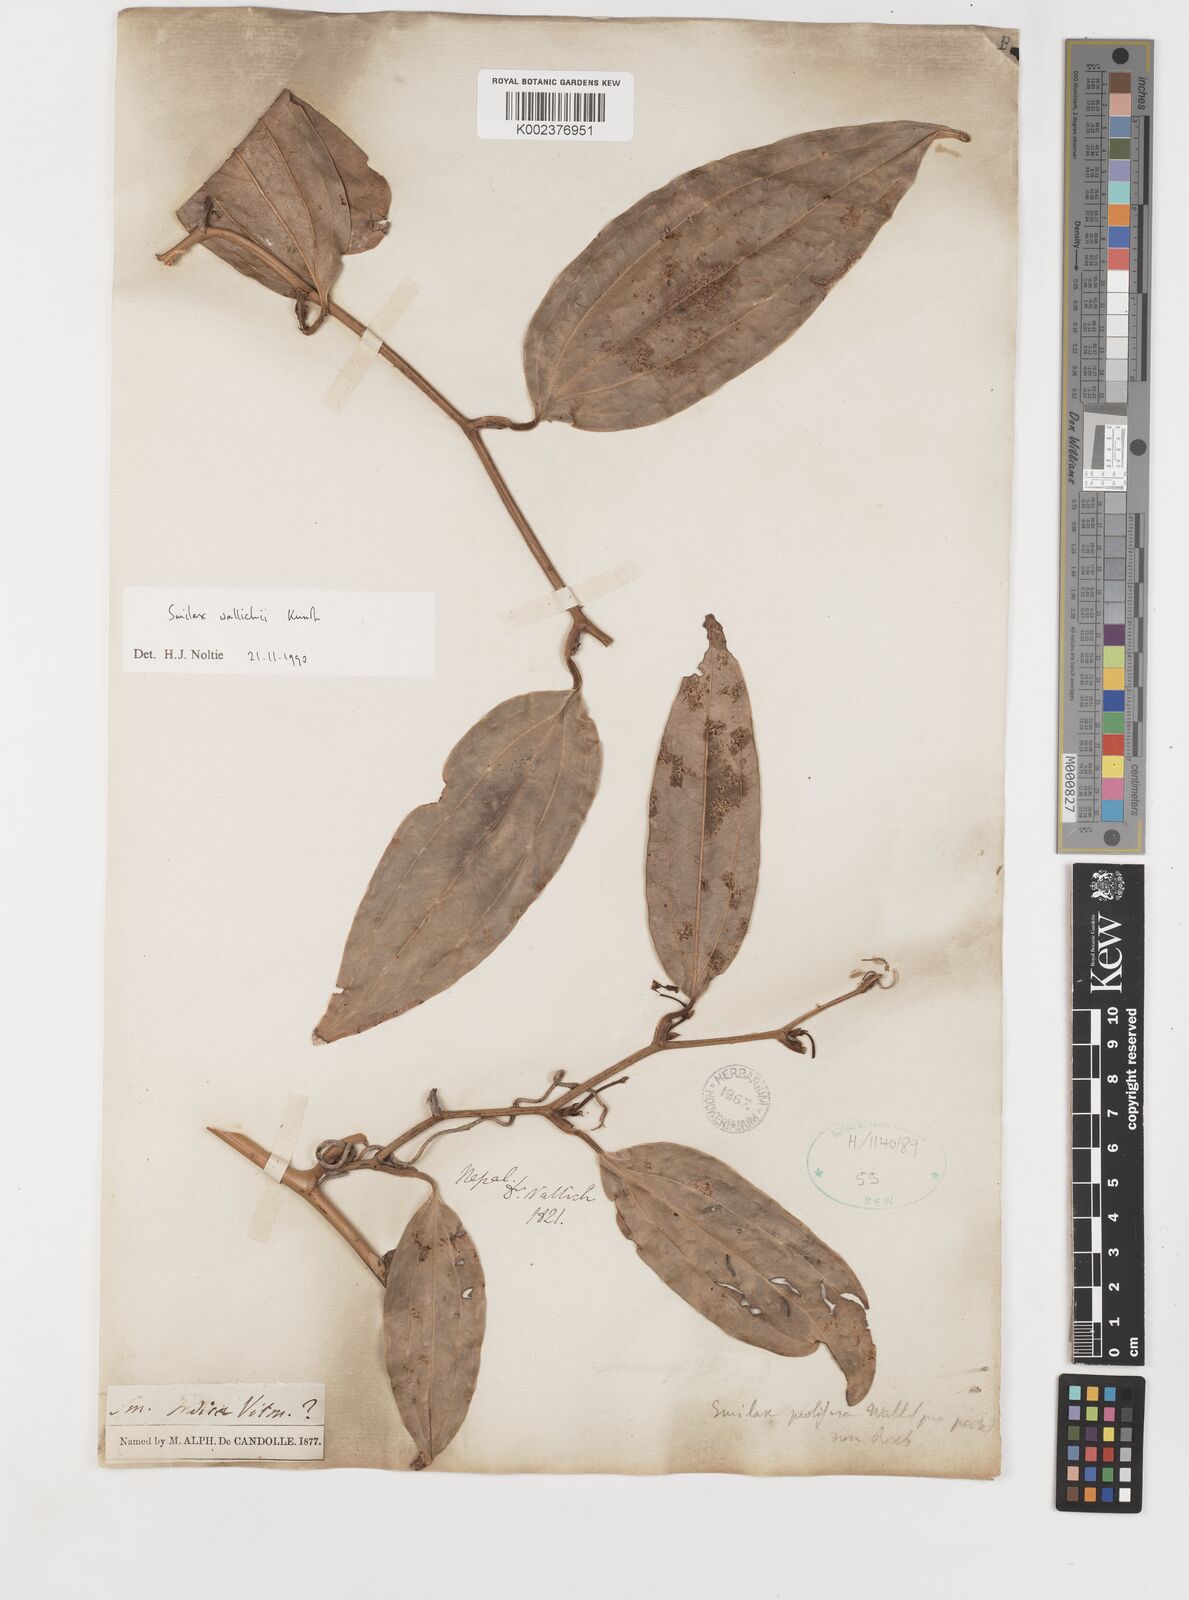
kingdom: Plantae
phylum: Tracheophyta
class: Liliopsida
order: Liliales
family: Smilacaceae
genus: Smilax
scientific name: Smilax wallichii
